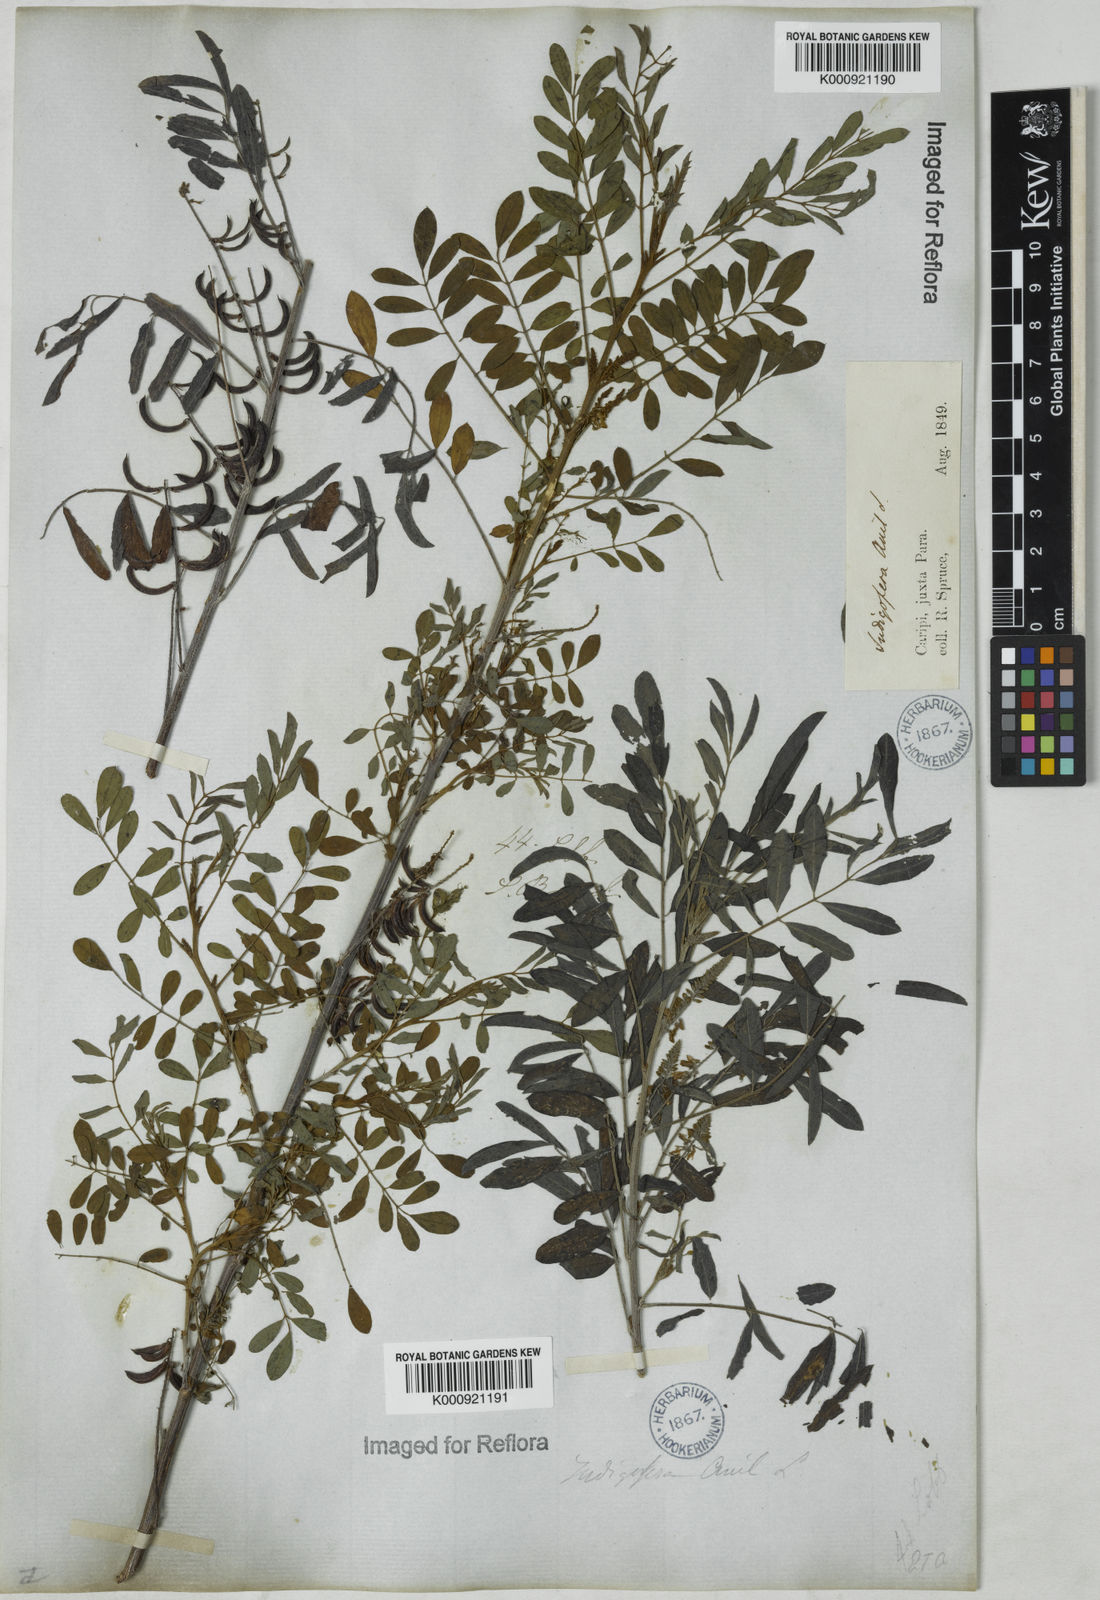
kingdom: Plantae
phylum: Tracheophyta
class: Magnoliopsida
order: Fabales
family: Fabaceae
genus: Indigofera
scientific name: Indigofera suffruticosa
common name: Anil de pasto
